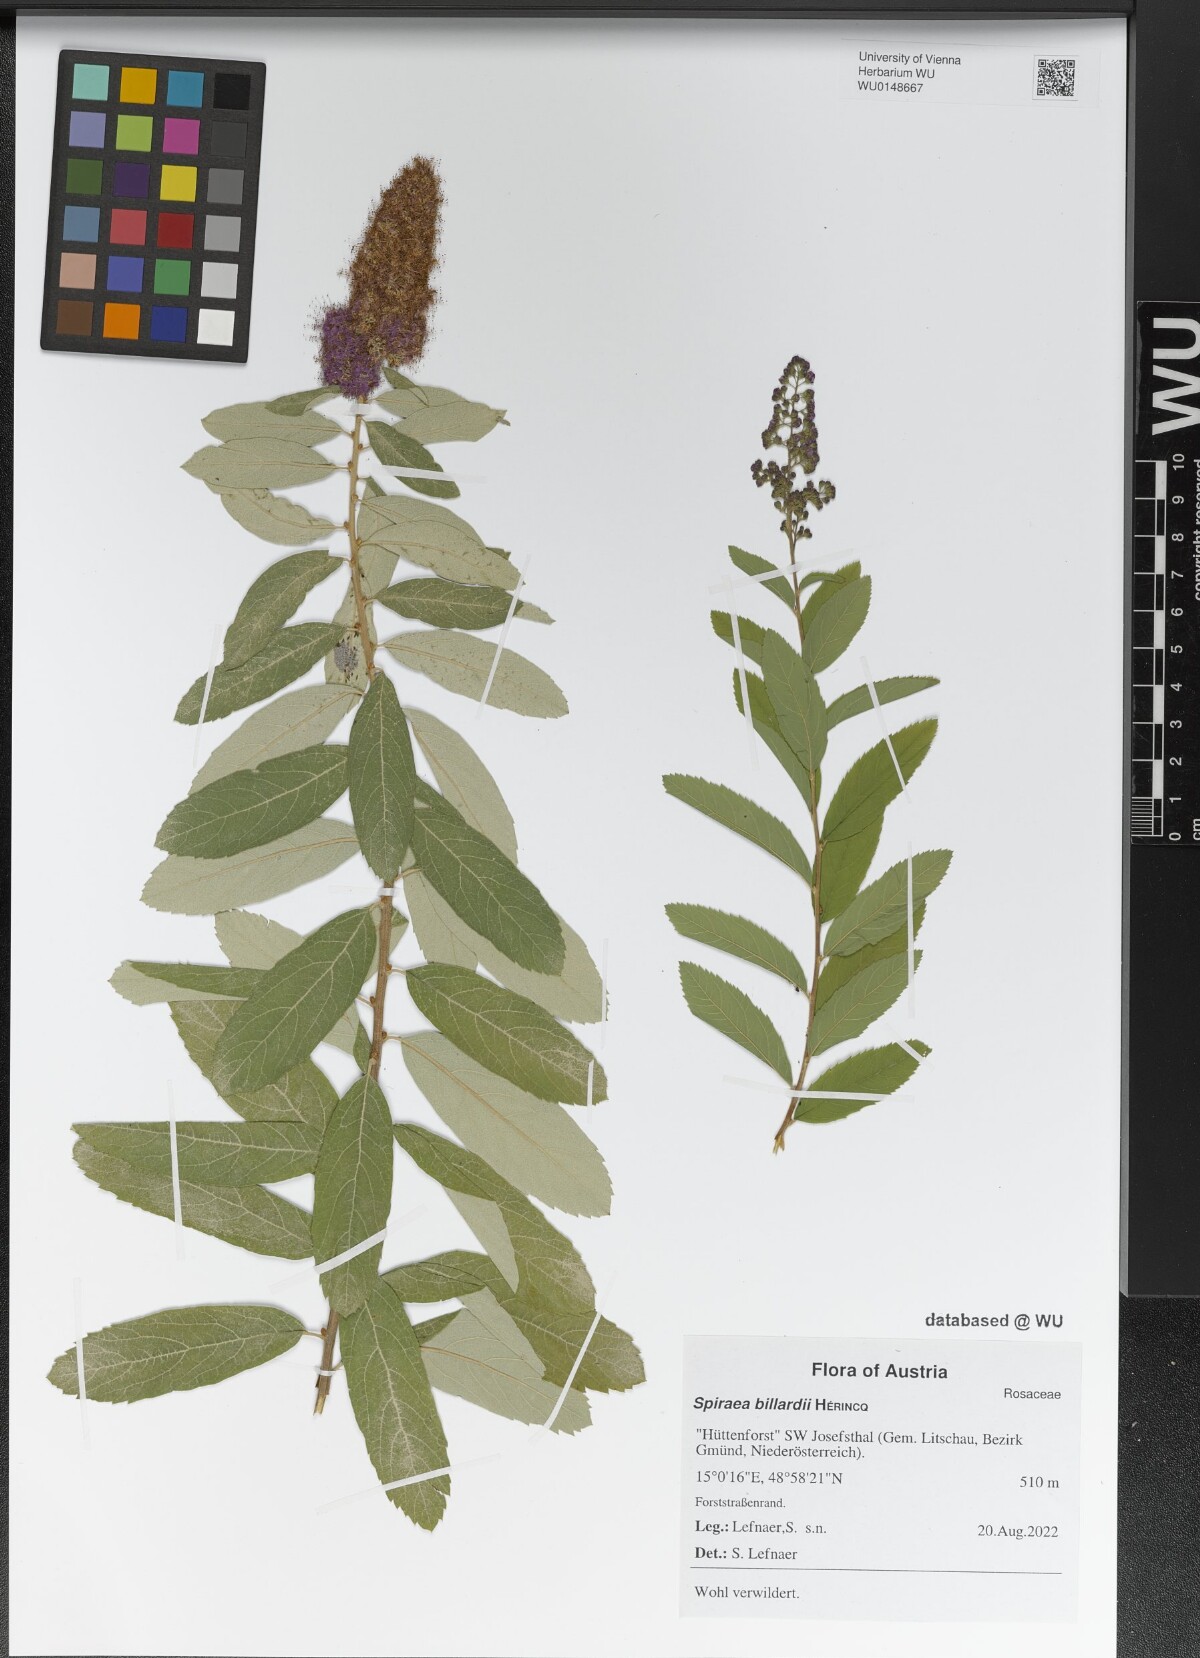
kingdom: Plantae
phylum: Tracheophyta
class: Magnoliopsida
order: Rosales
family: Rosaceae
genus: Spiraea
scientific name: Spiraea billardii
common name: Billard's bridewort
